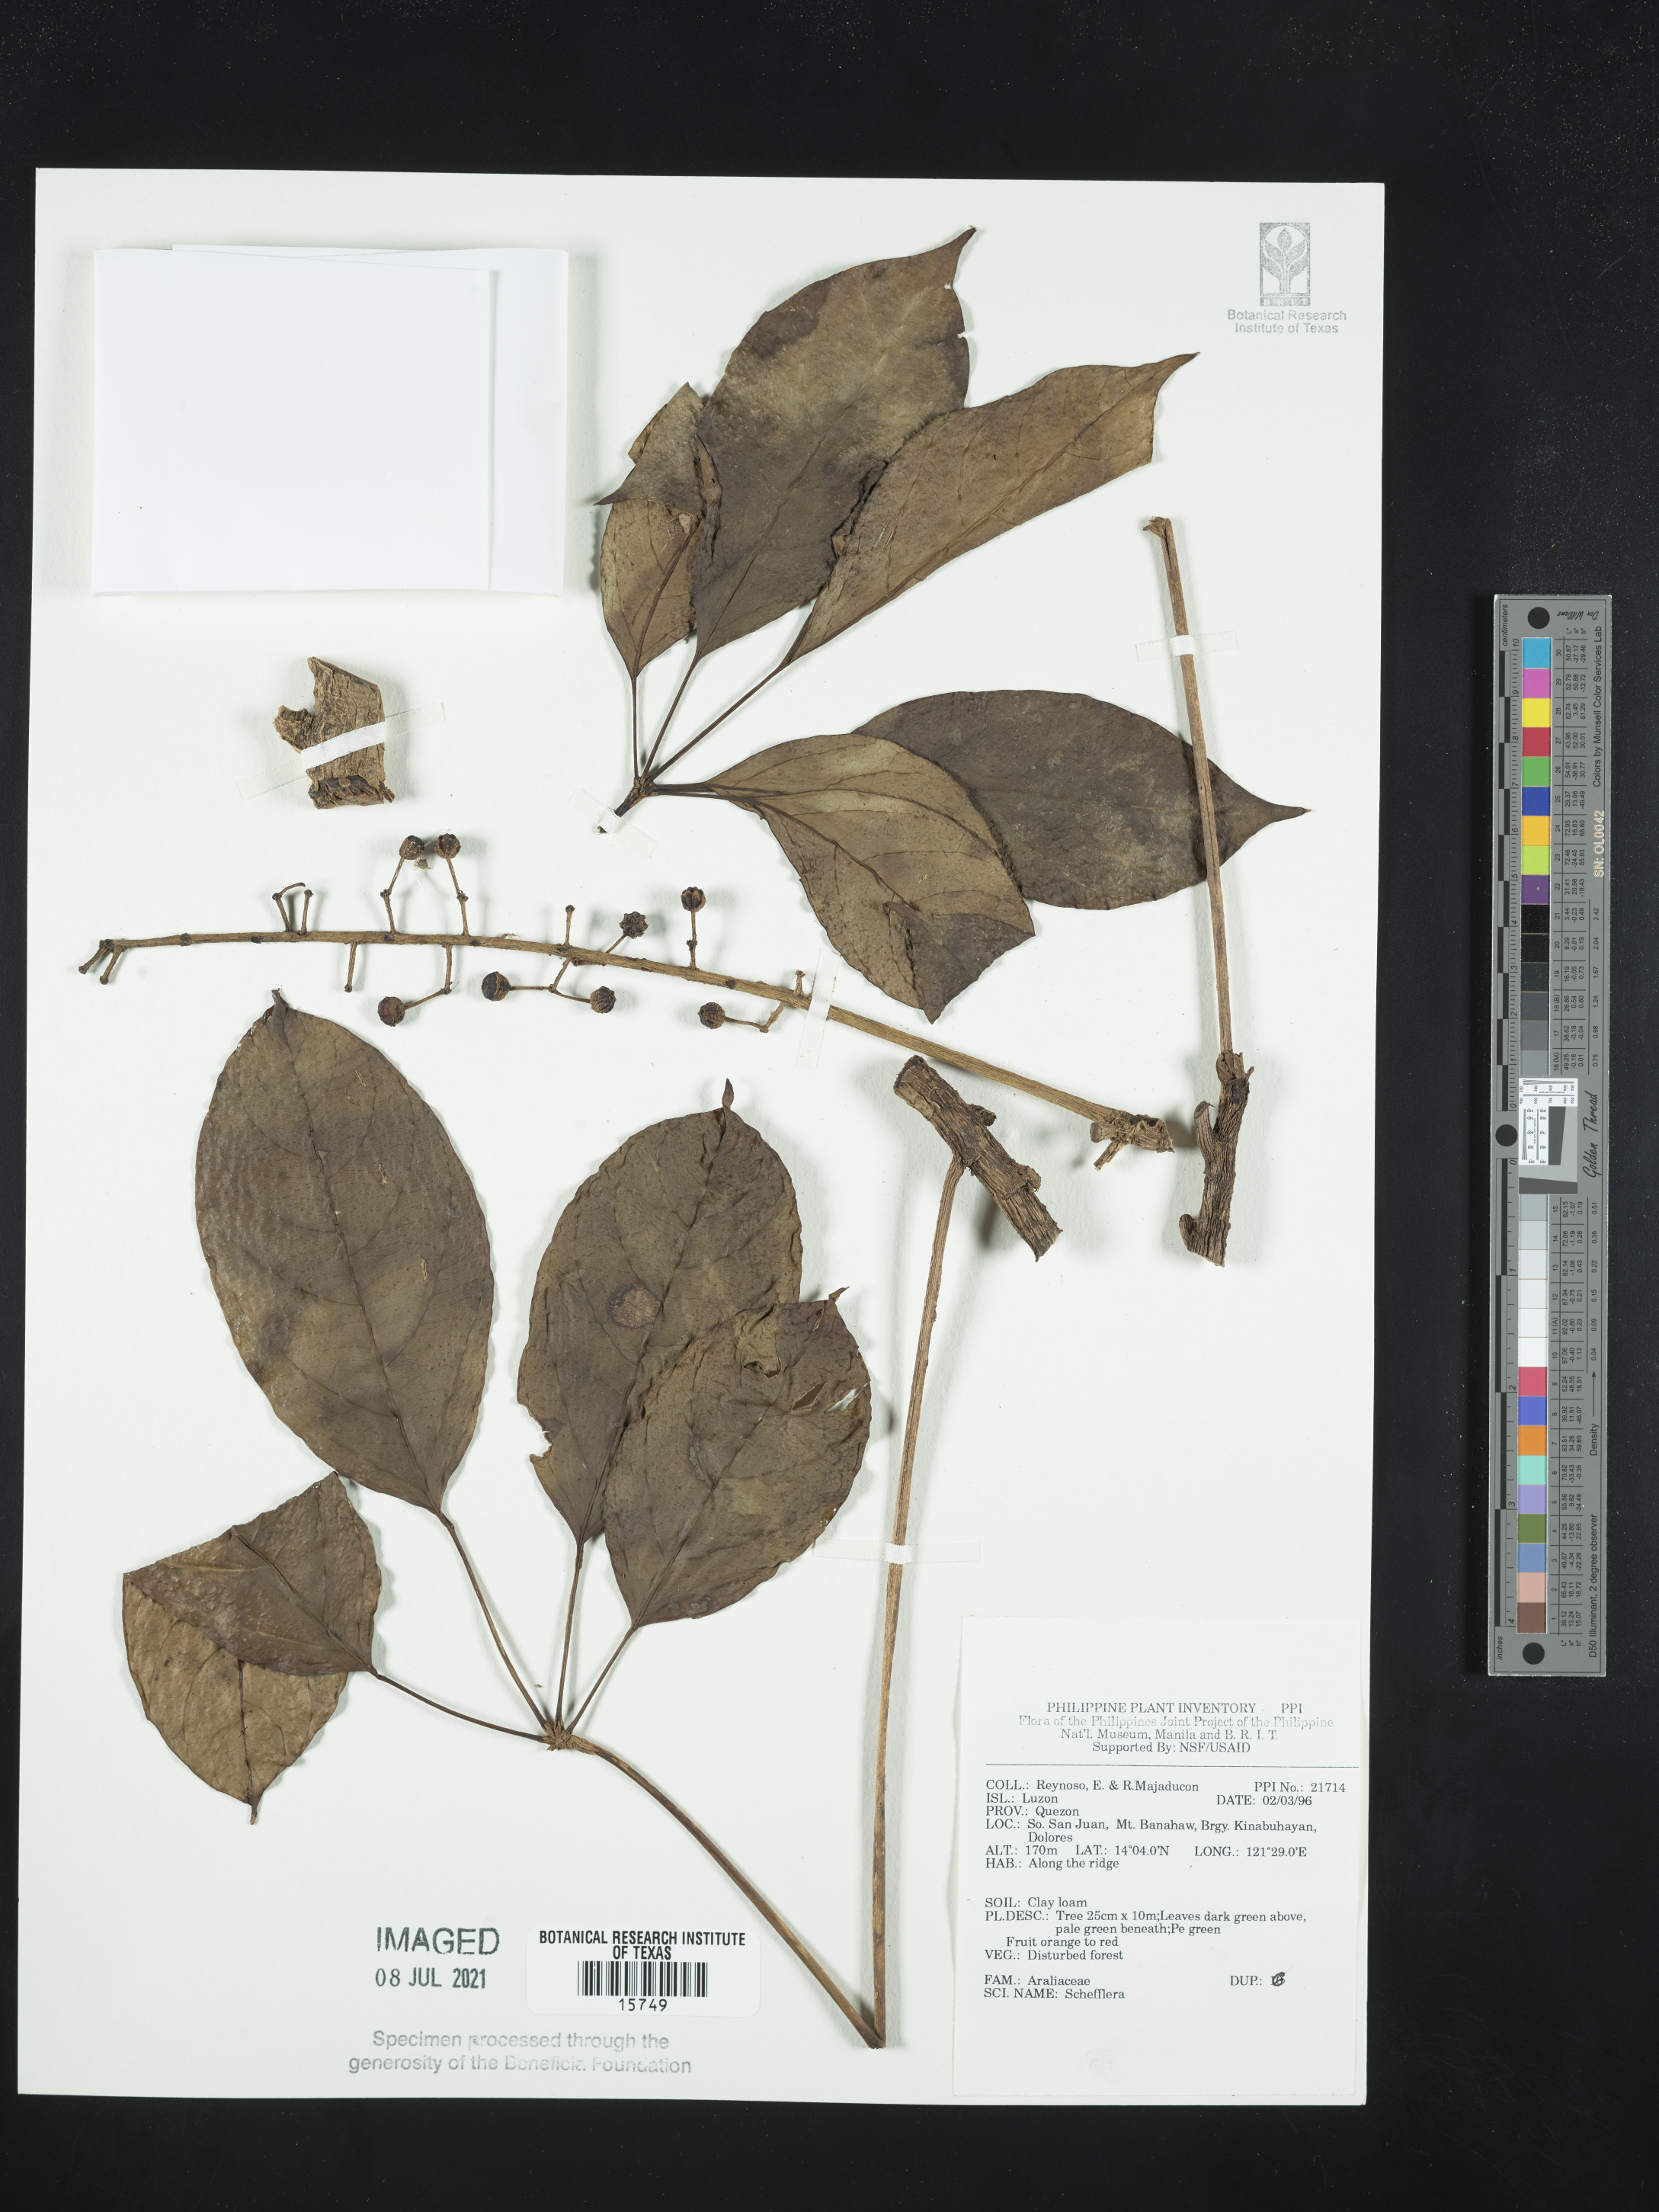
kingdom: Plantae
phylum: Tracheophyta
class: Magnoliopsida
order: Apiales
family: Araliaceae
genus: Schefflera
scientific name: Schefflera
